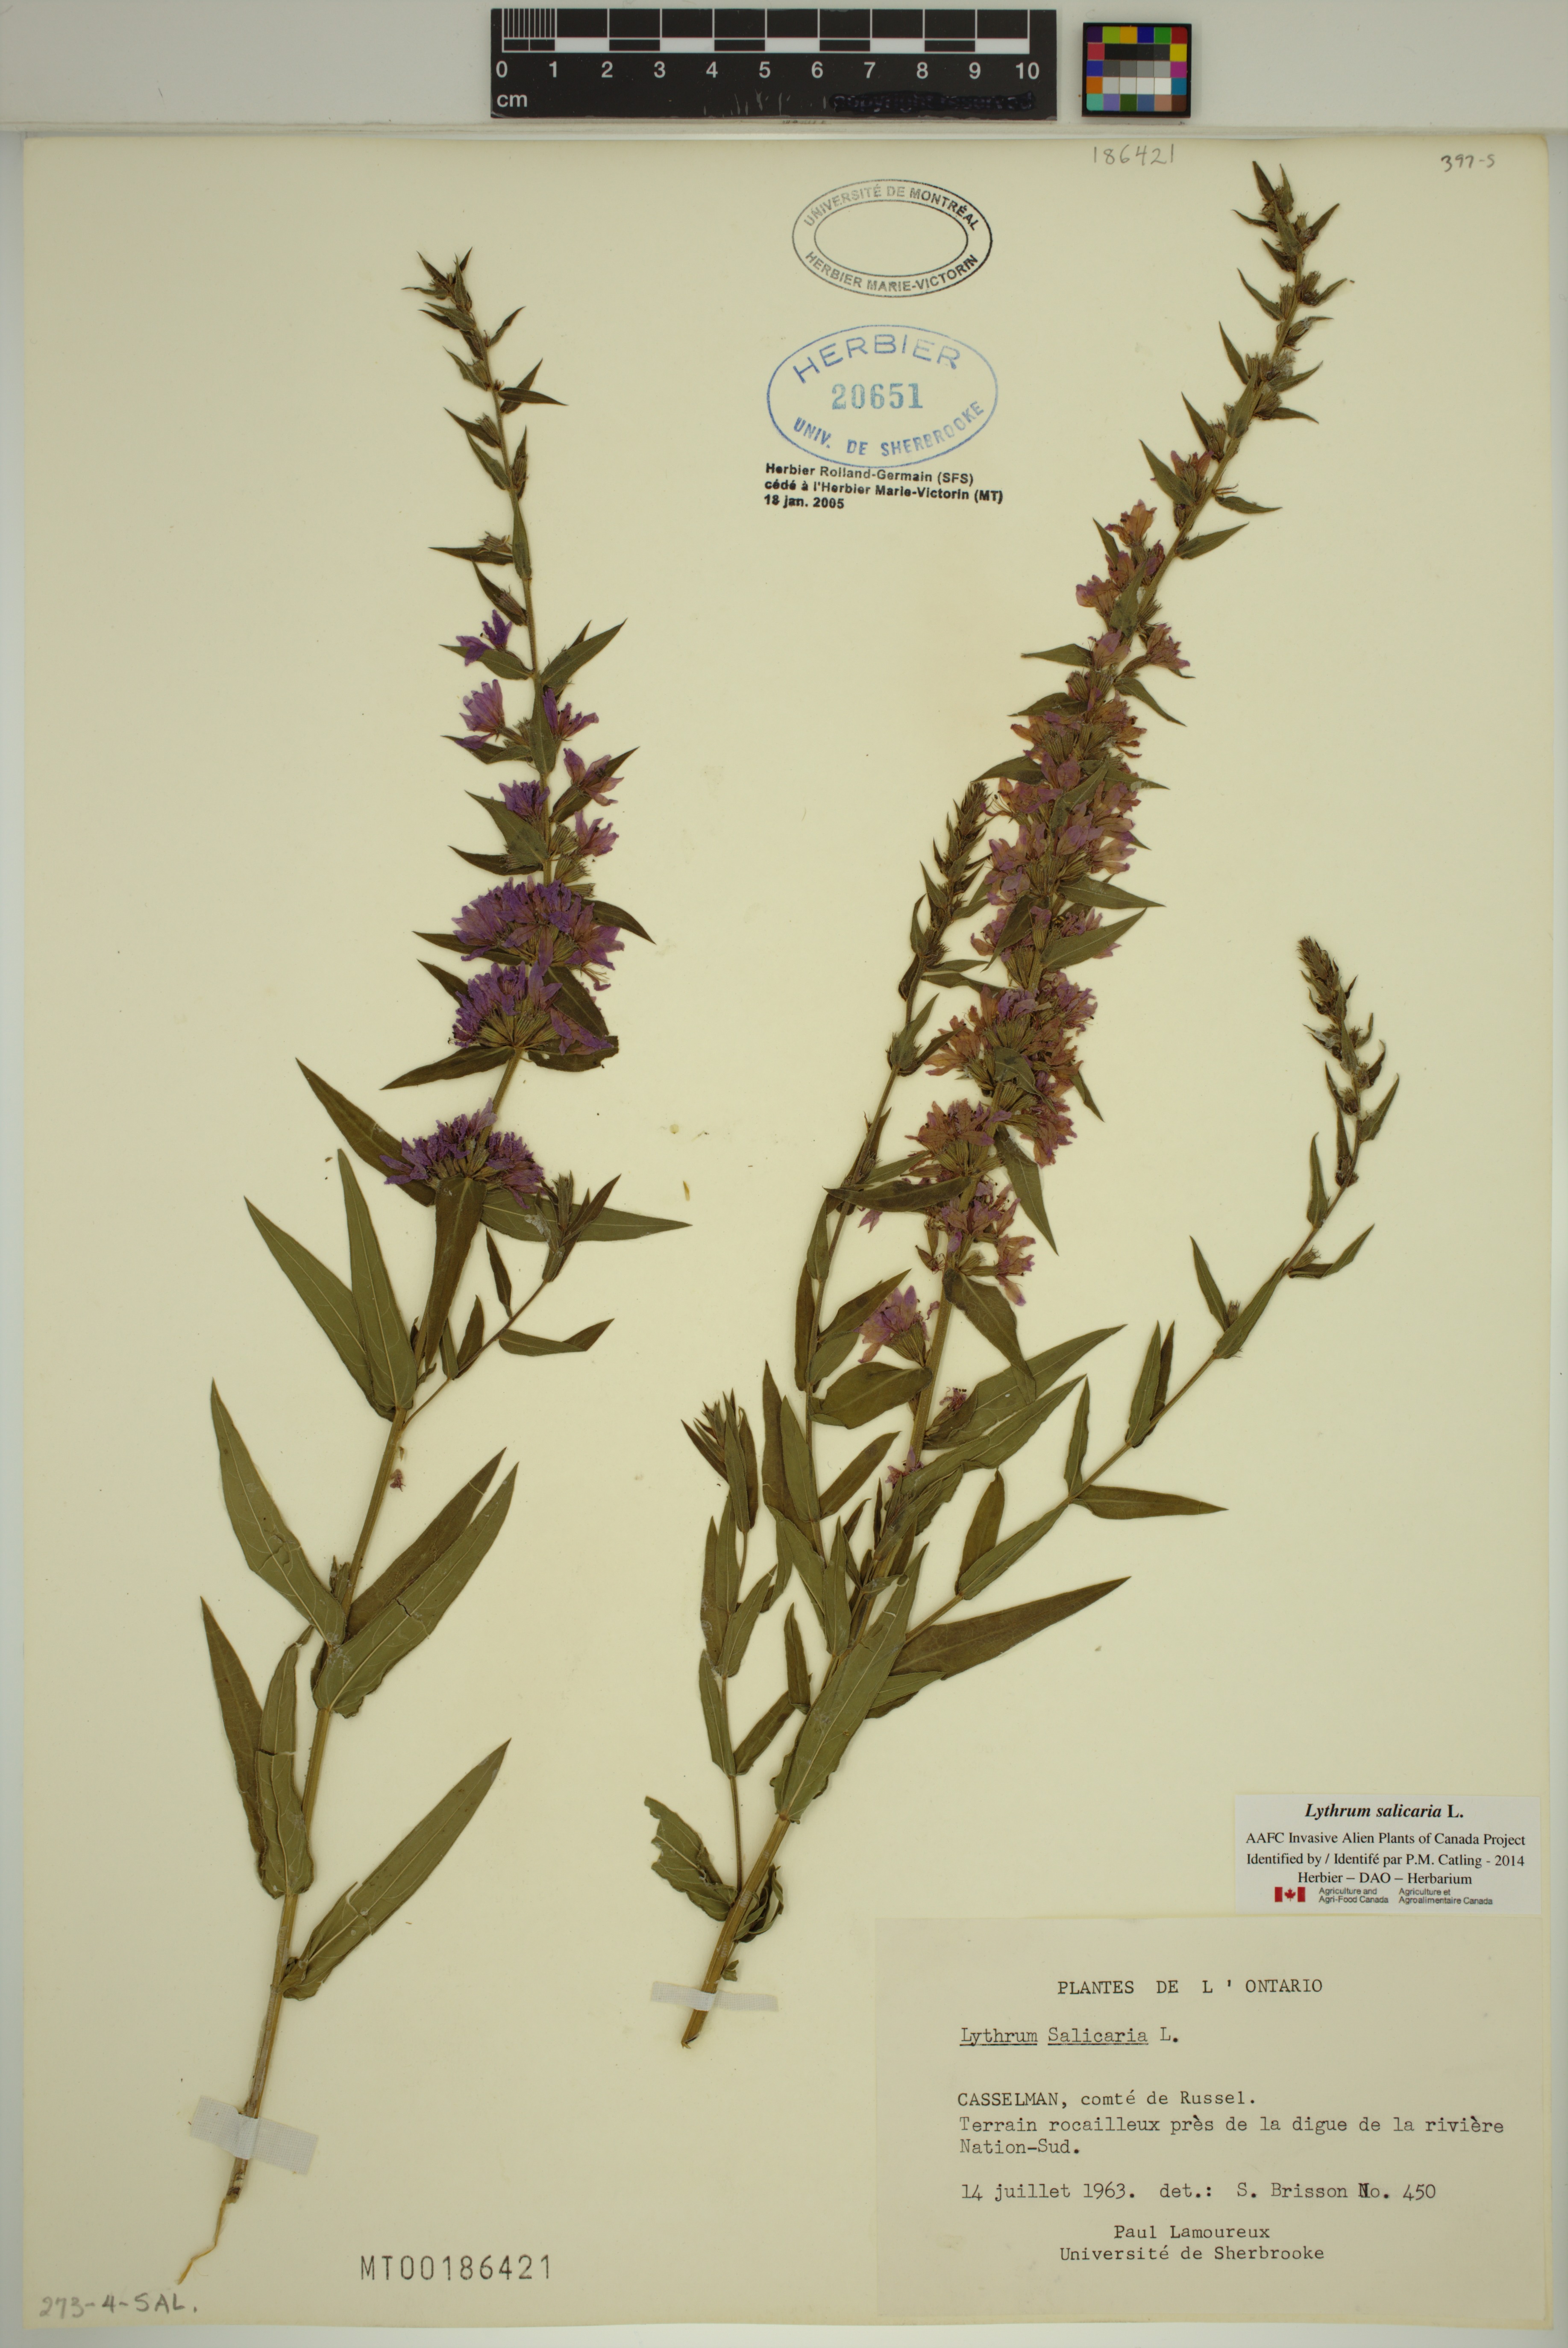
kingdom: Plantae
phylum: Tracheophyta
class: Magnoliopsida
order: Myrtales
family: Lythraceae
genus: Lythrum
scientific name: Lythrum salicaria
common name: Purple loosestrife
